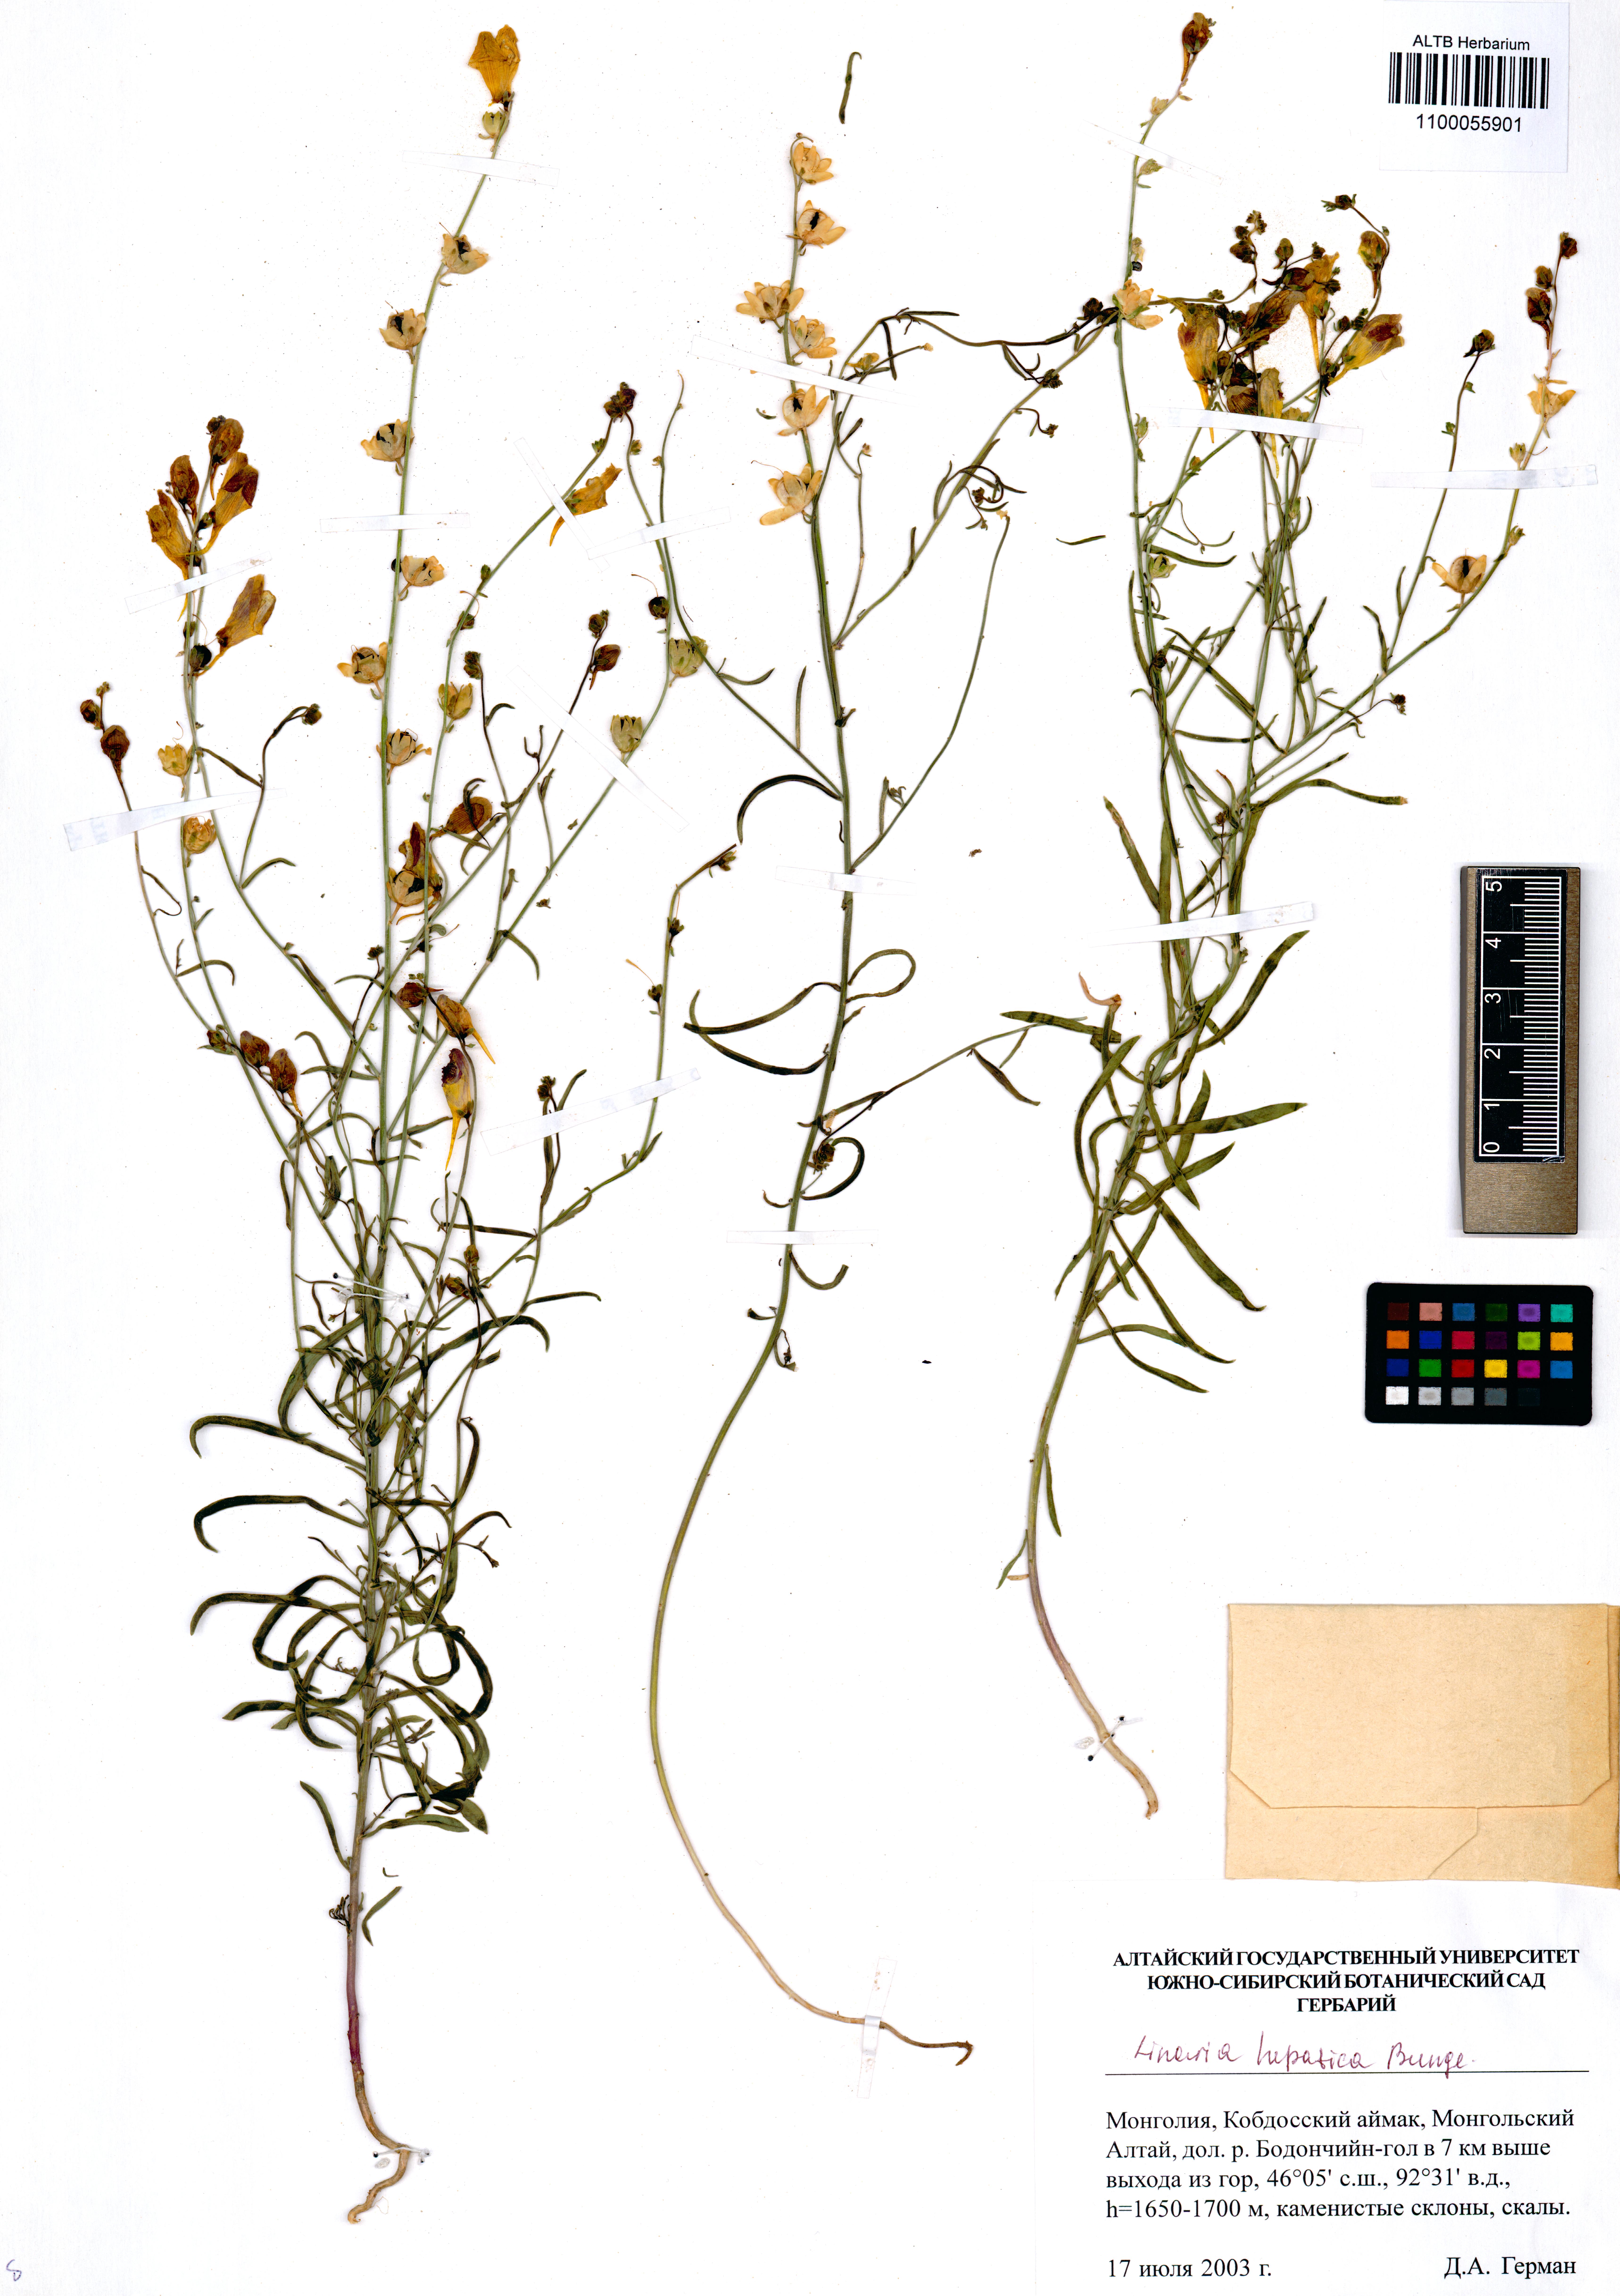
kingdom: Plantae
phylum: Tracheophyta
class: Magnoliopsida
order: Lamiales
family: Plantaginaceae
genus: Linaria
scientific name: Linaria hepatica
